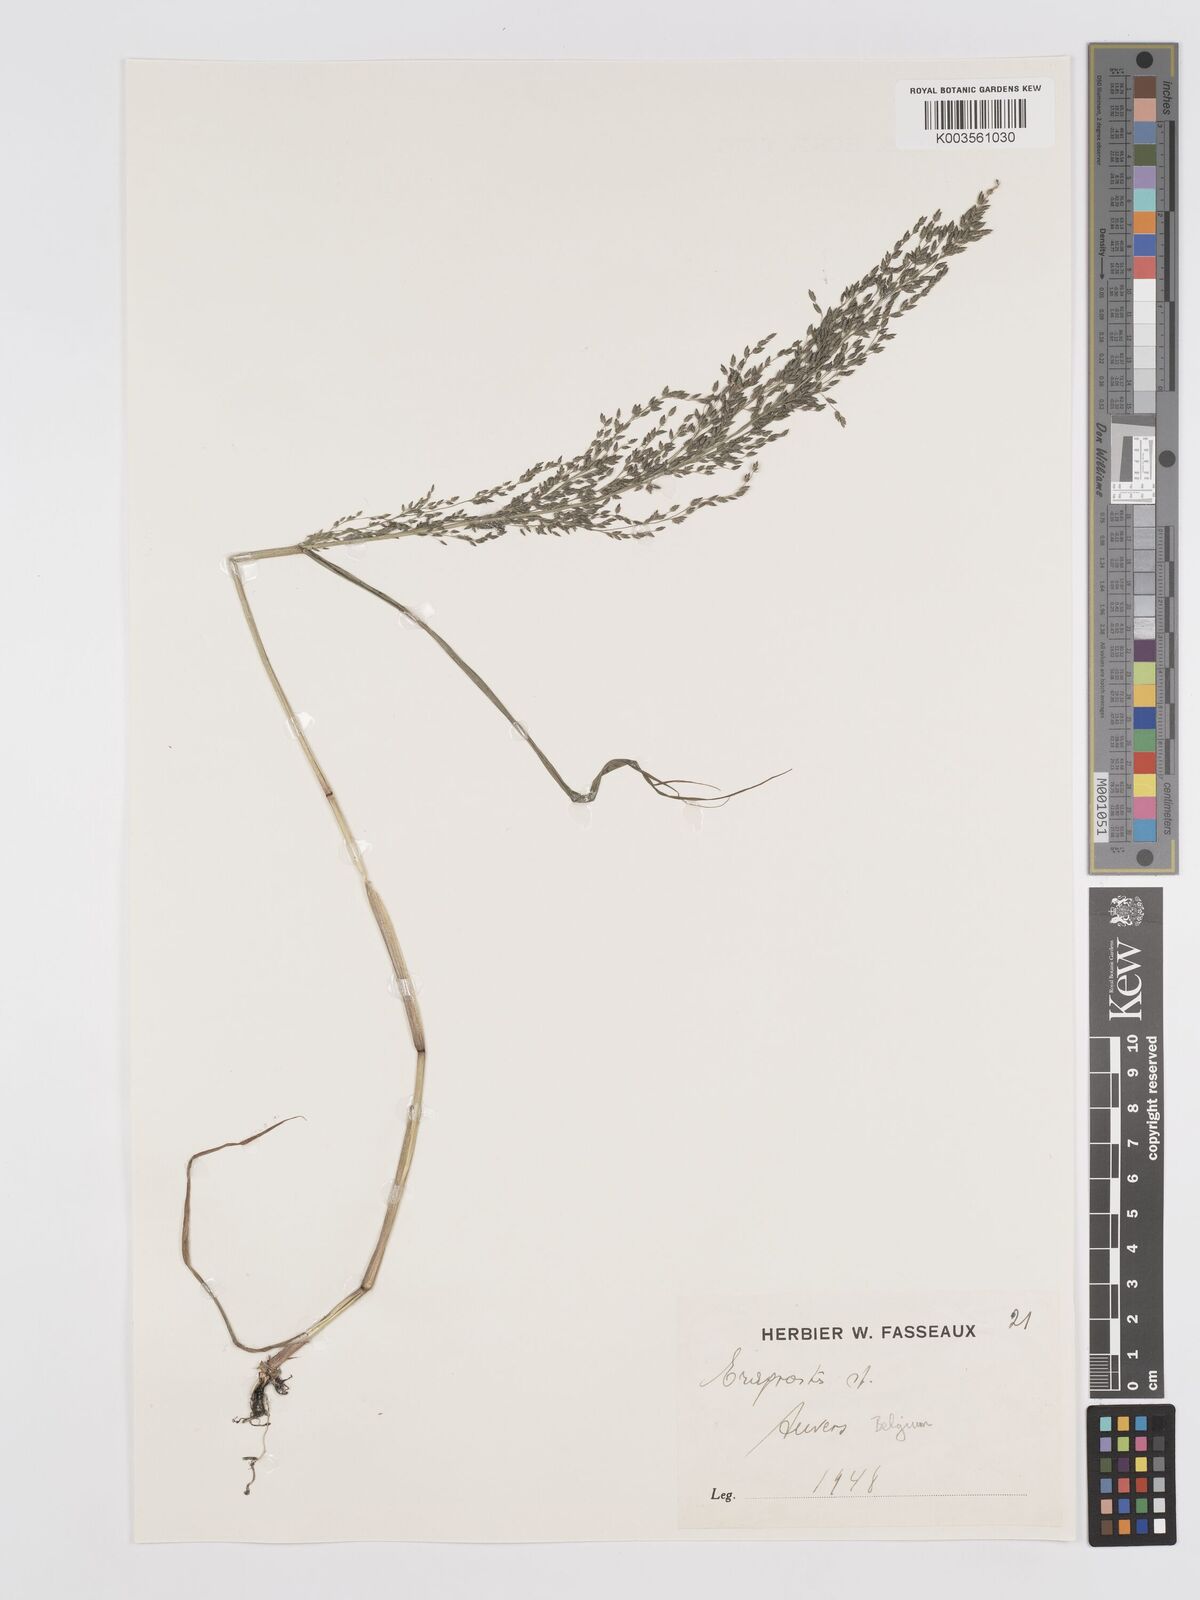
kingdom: Plantae
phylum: Tracheophyta
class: Liliopsida
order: Poales
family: Poaceae
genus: Eragrostis
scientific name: Eragrostis
